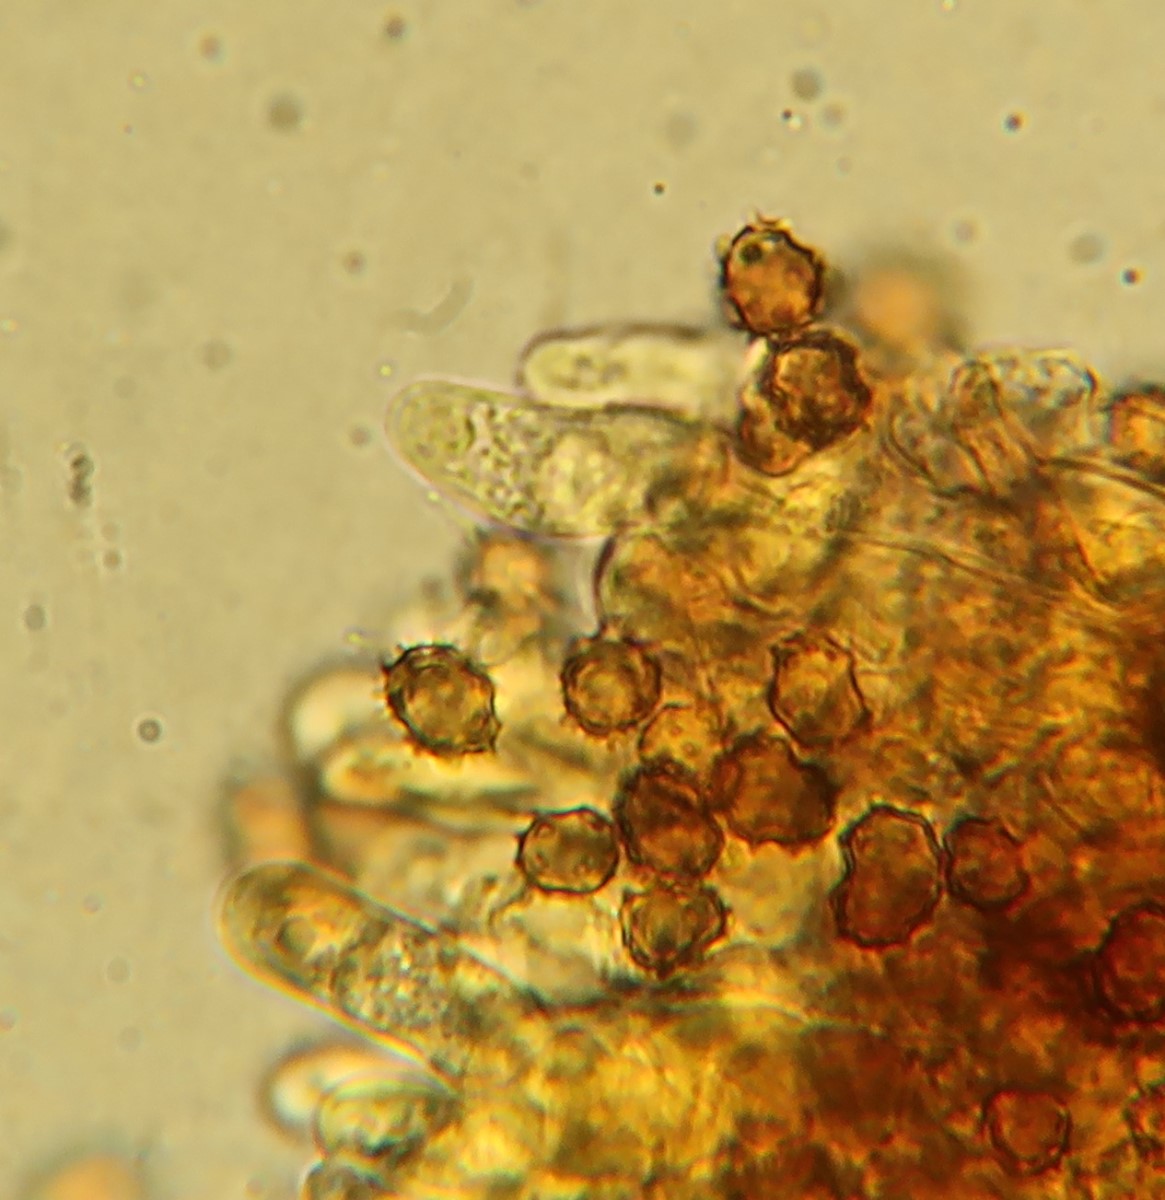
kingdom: Fungi
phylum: Basidiomycota
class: Agaricomycetes
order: Thelephorales
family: Thelephoraceae
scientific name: Thelephoraceae
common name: frynsesvampfamilien
